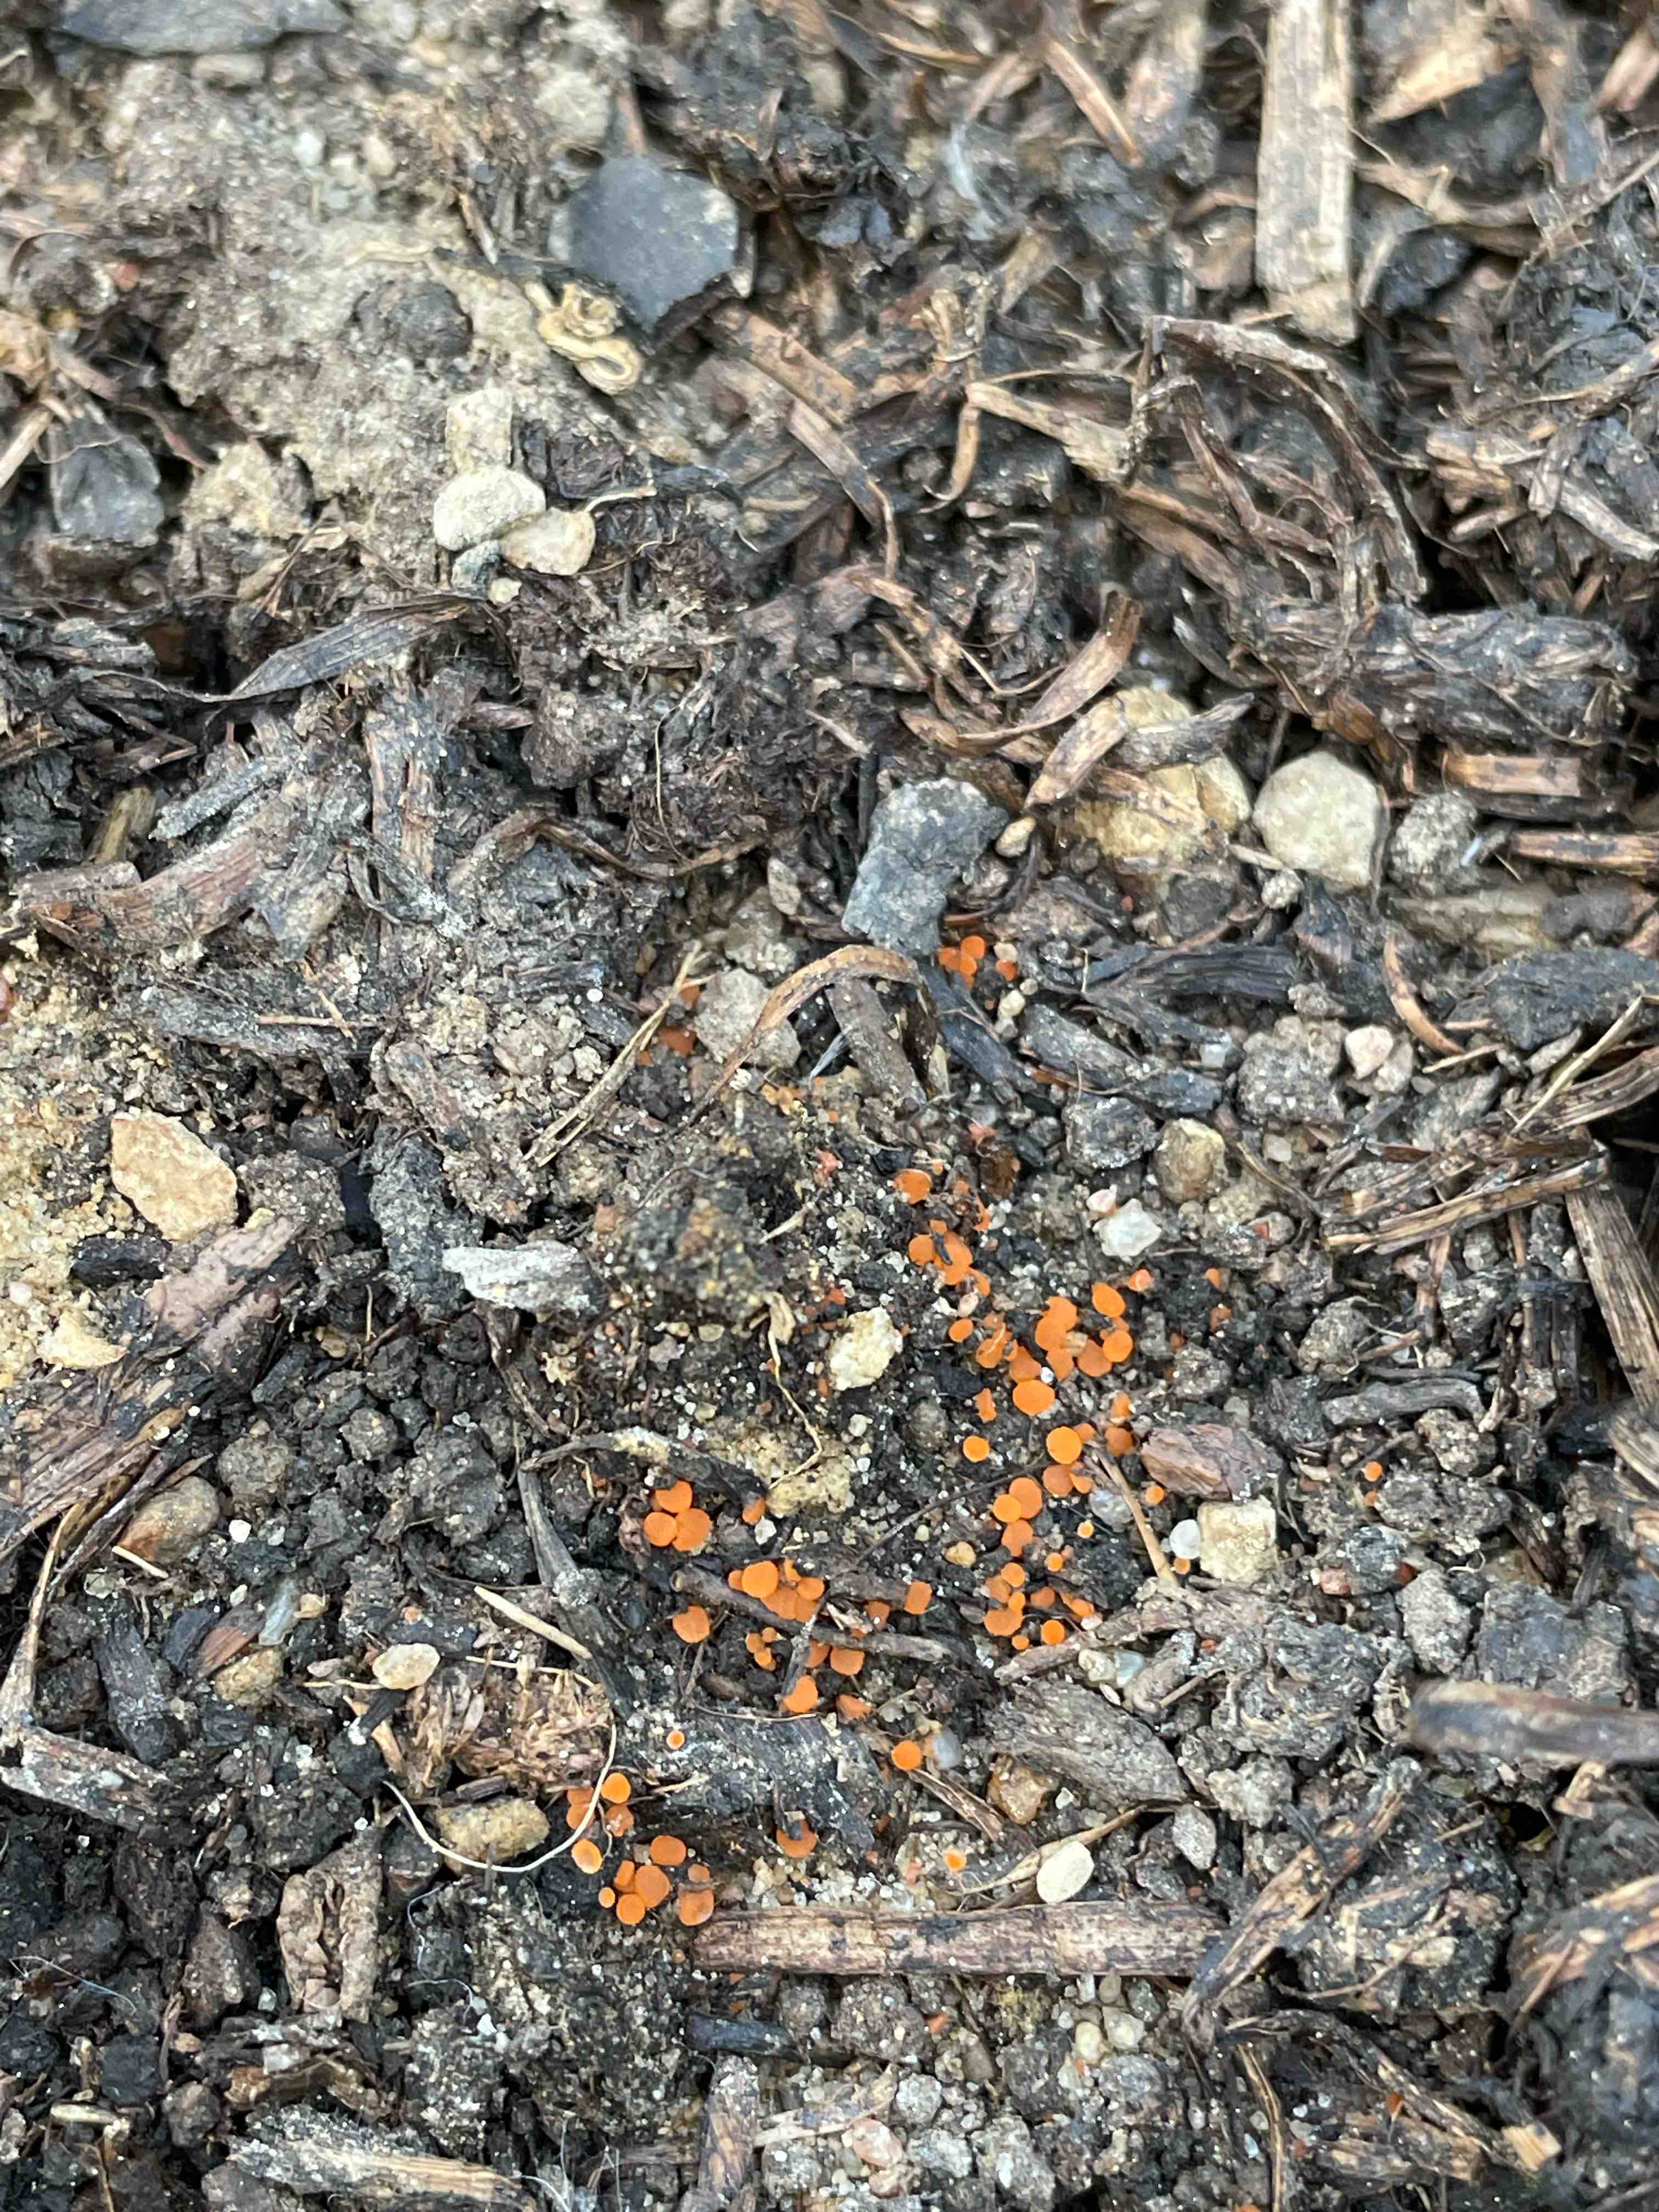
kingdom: Fungi
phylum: Ascomycota
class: Pezizomycetes
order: Pezizales
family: Pyronemataceae
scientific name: Pyronemataceae
